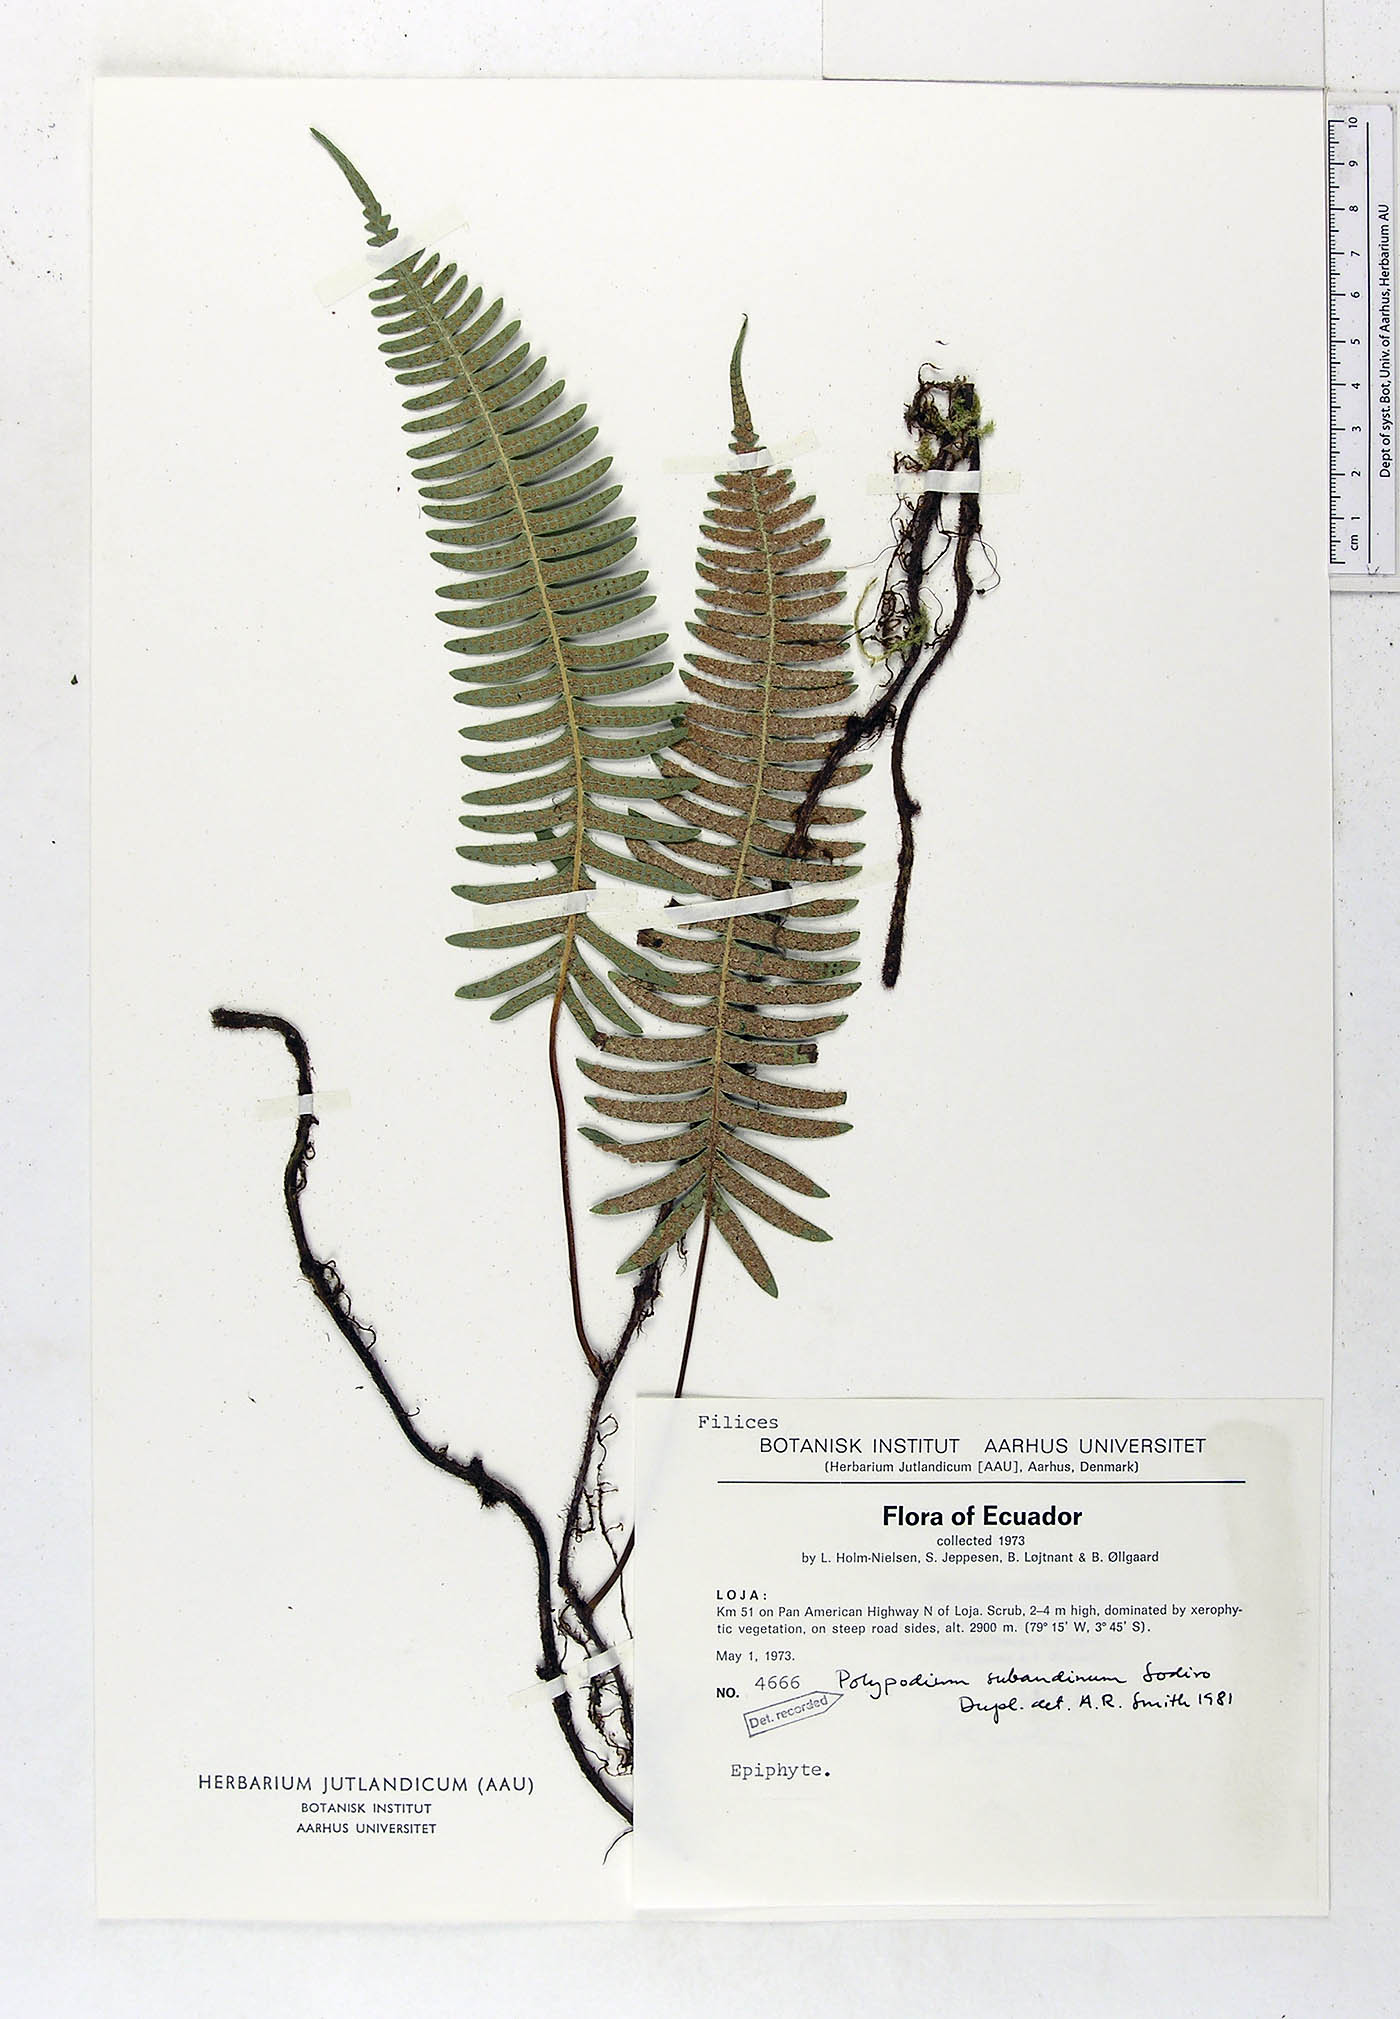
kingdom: Plantae
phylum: Tracheophyta
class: Polypodiopsida
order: Polypodiales
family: Polypodiaceae
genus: Serpocaulon
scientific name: Serpocaulon subandinum
